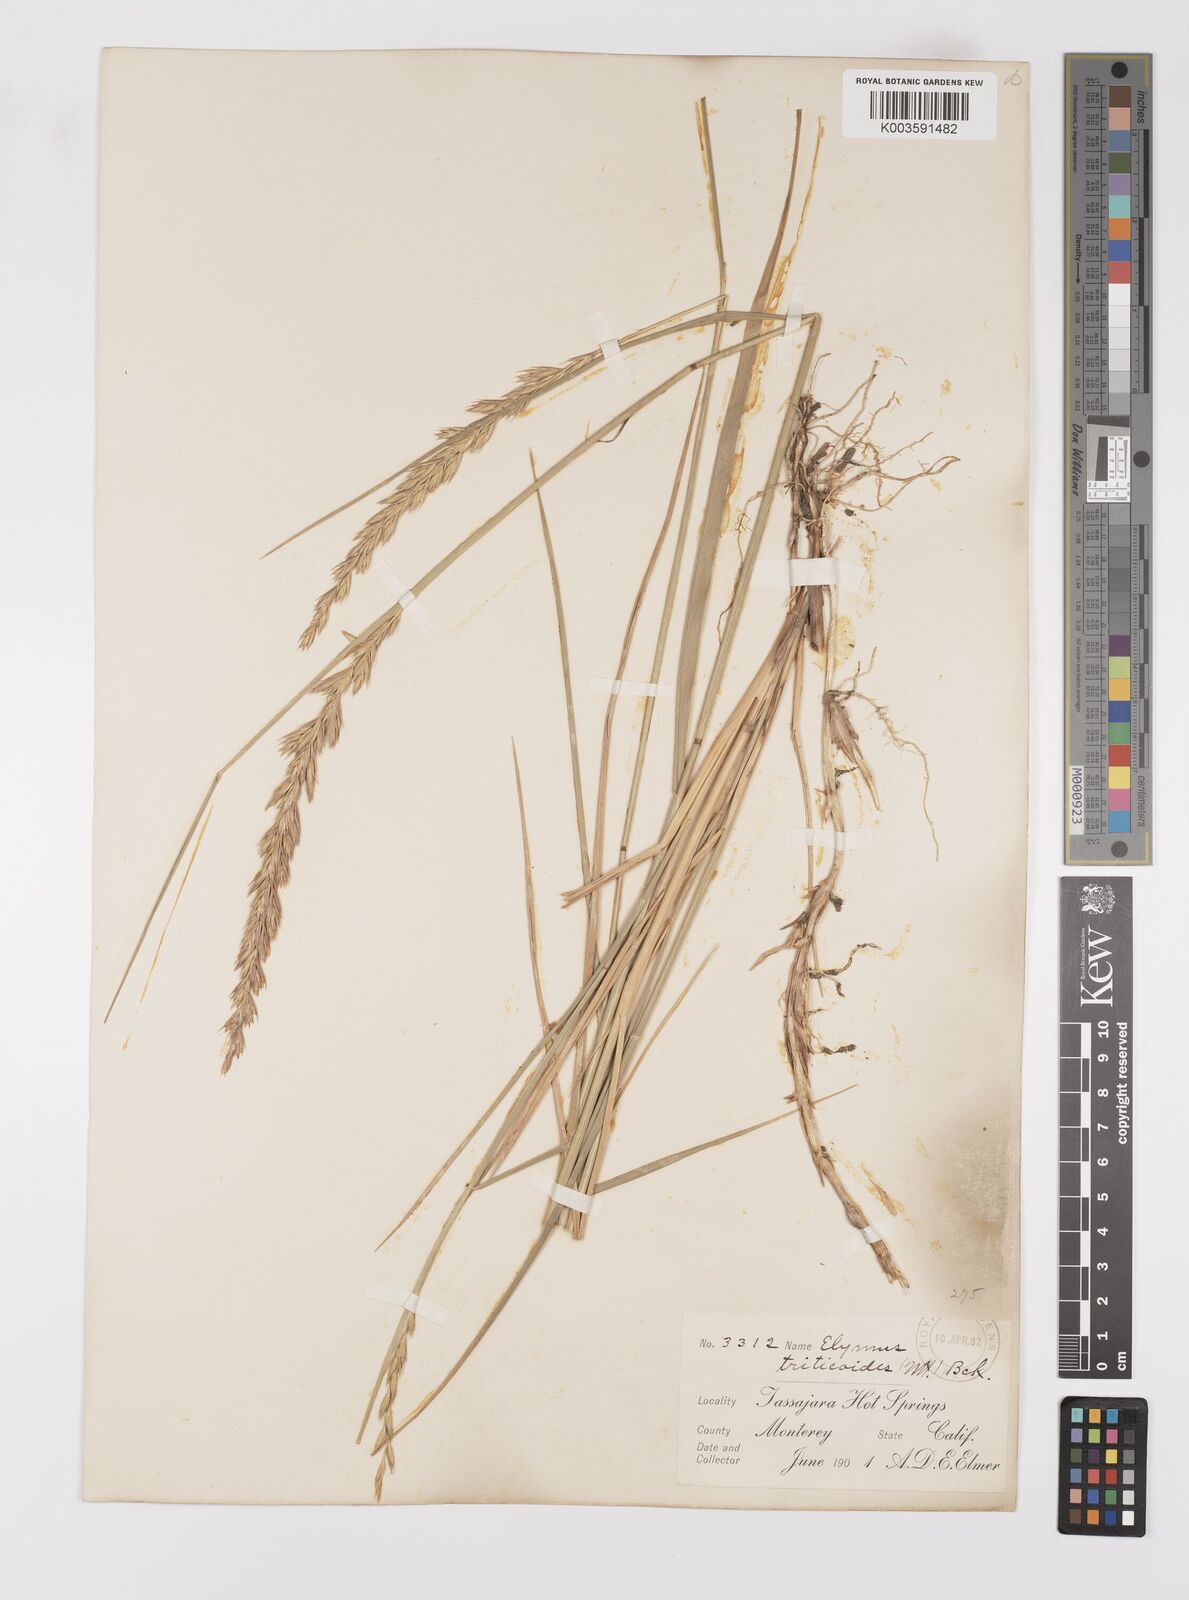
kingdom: Plantae
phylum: Tracheophyta
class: Liliopsida
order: Poales
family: Poaceae
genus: Leymus
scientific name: Leymus triticoides
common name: Beardless wild rye
